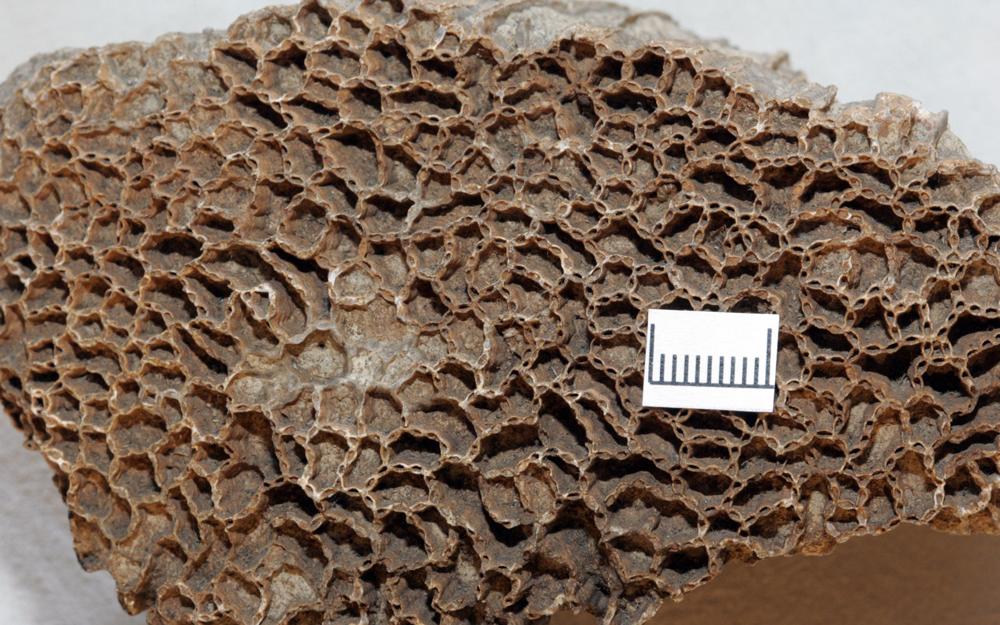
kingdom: Animalia
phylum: Cnidaria
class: Anthozoa
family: Cateniporidae
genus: Catenipora
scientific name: Catenipora
